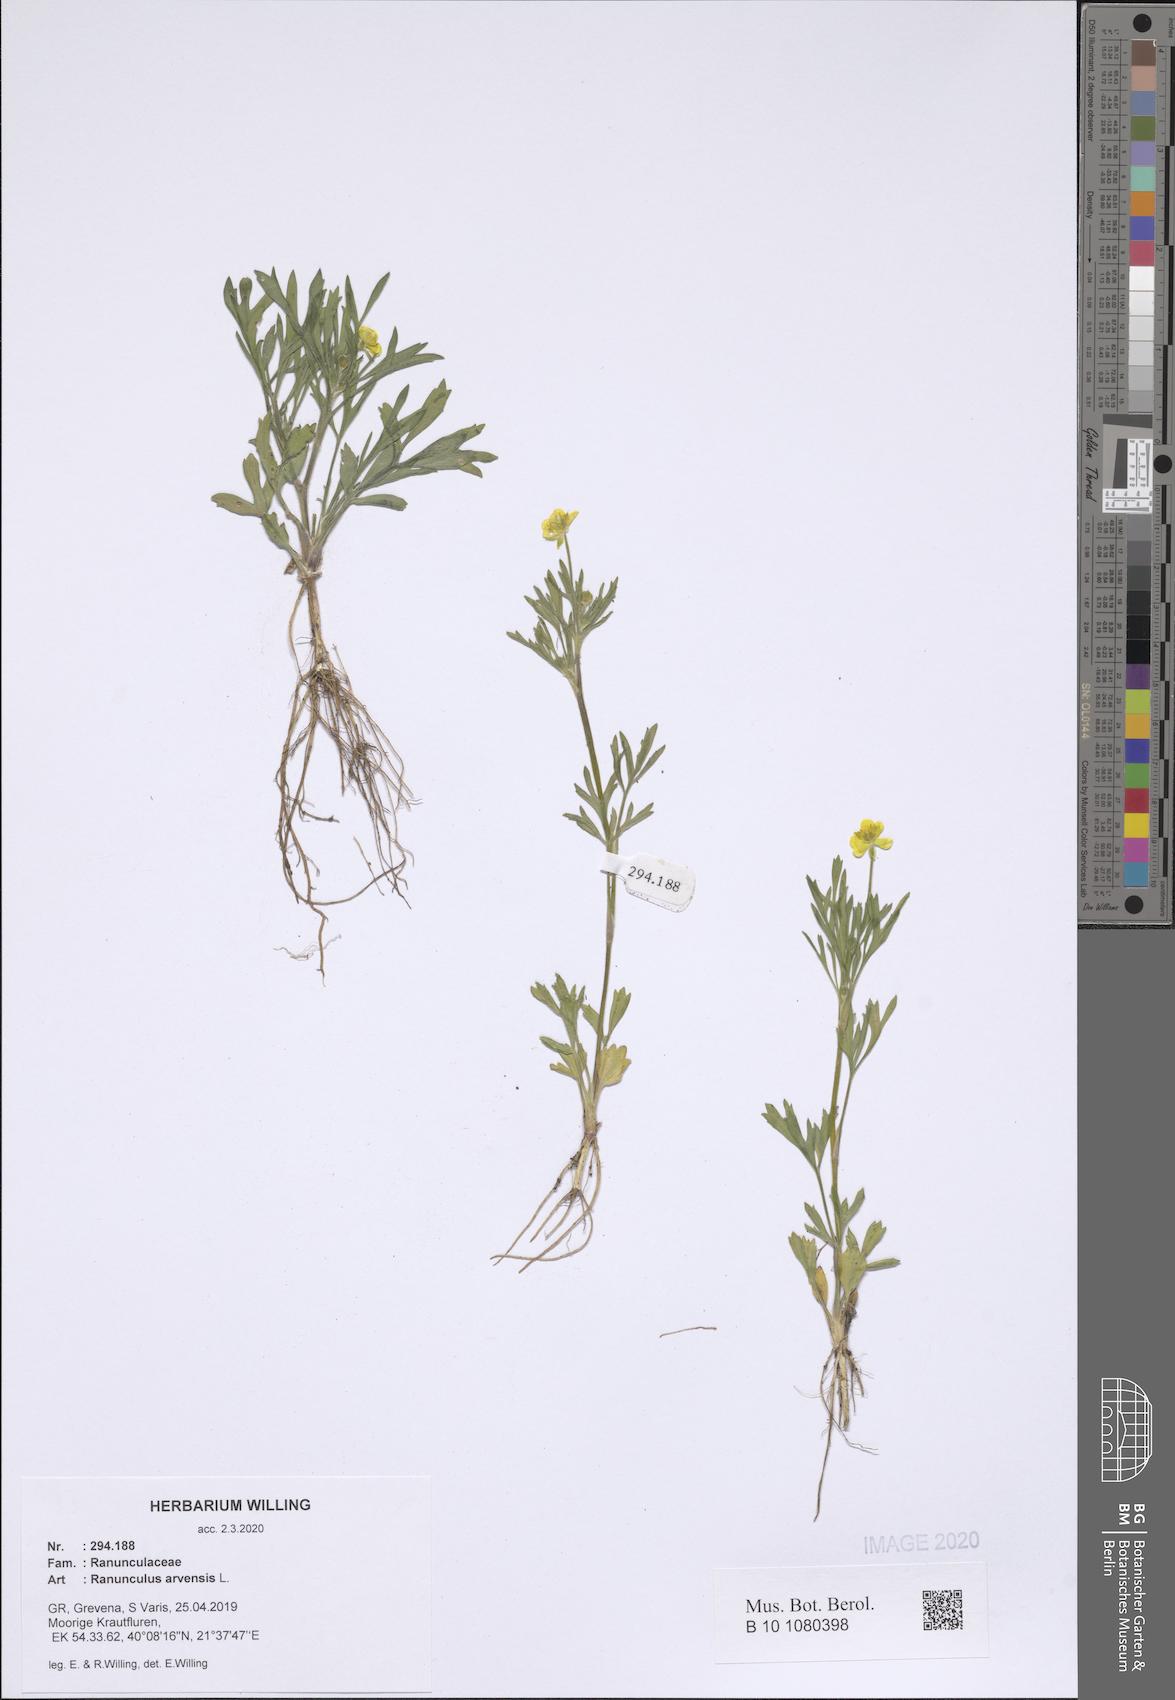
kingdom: Plantae
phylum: Tracheophyta
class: Magnoliopsida
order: Ranunculales
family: Ranunculaceae
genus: Ranunculus
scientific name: Ranunculus arvensis
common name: Corn buttercup
